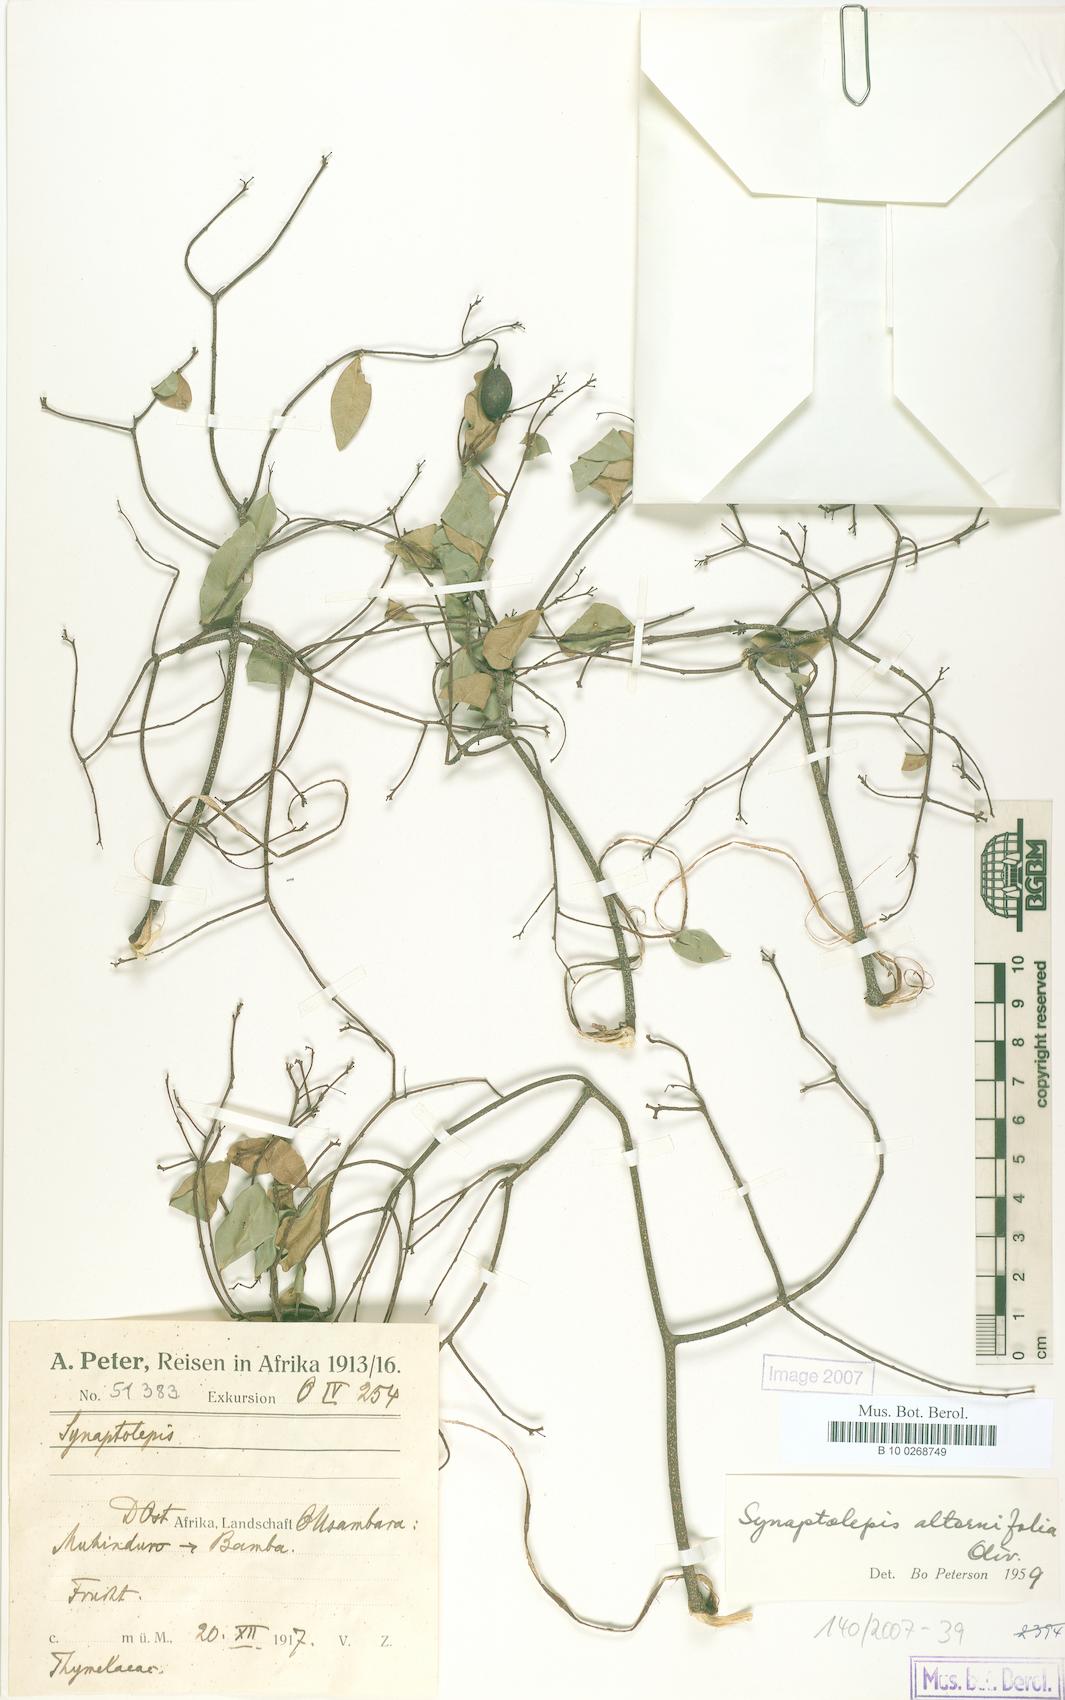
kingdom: Plantae
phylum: Tracheophyta
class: Magnoliopsida
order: Malvales
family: Thymelaeaceae
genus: Synaptolepis
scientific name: Synaptolepis alternifolia
